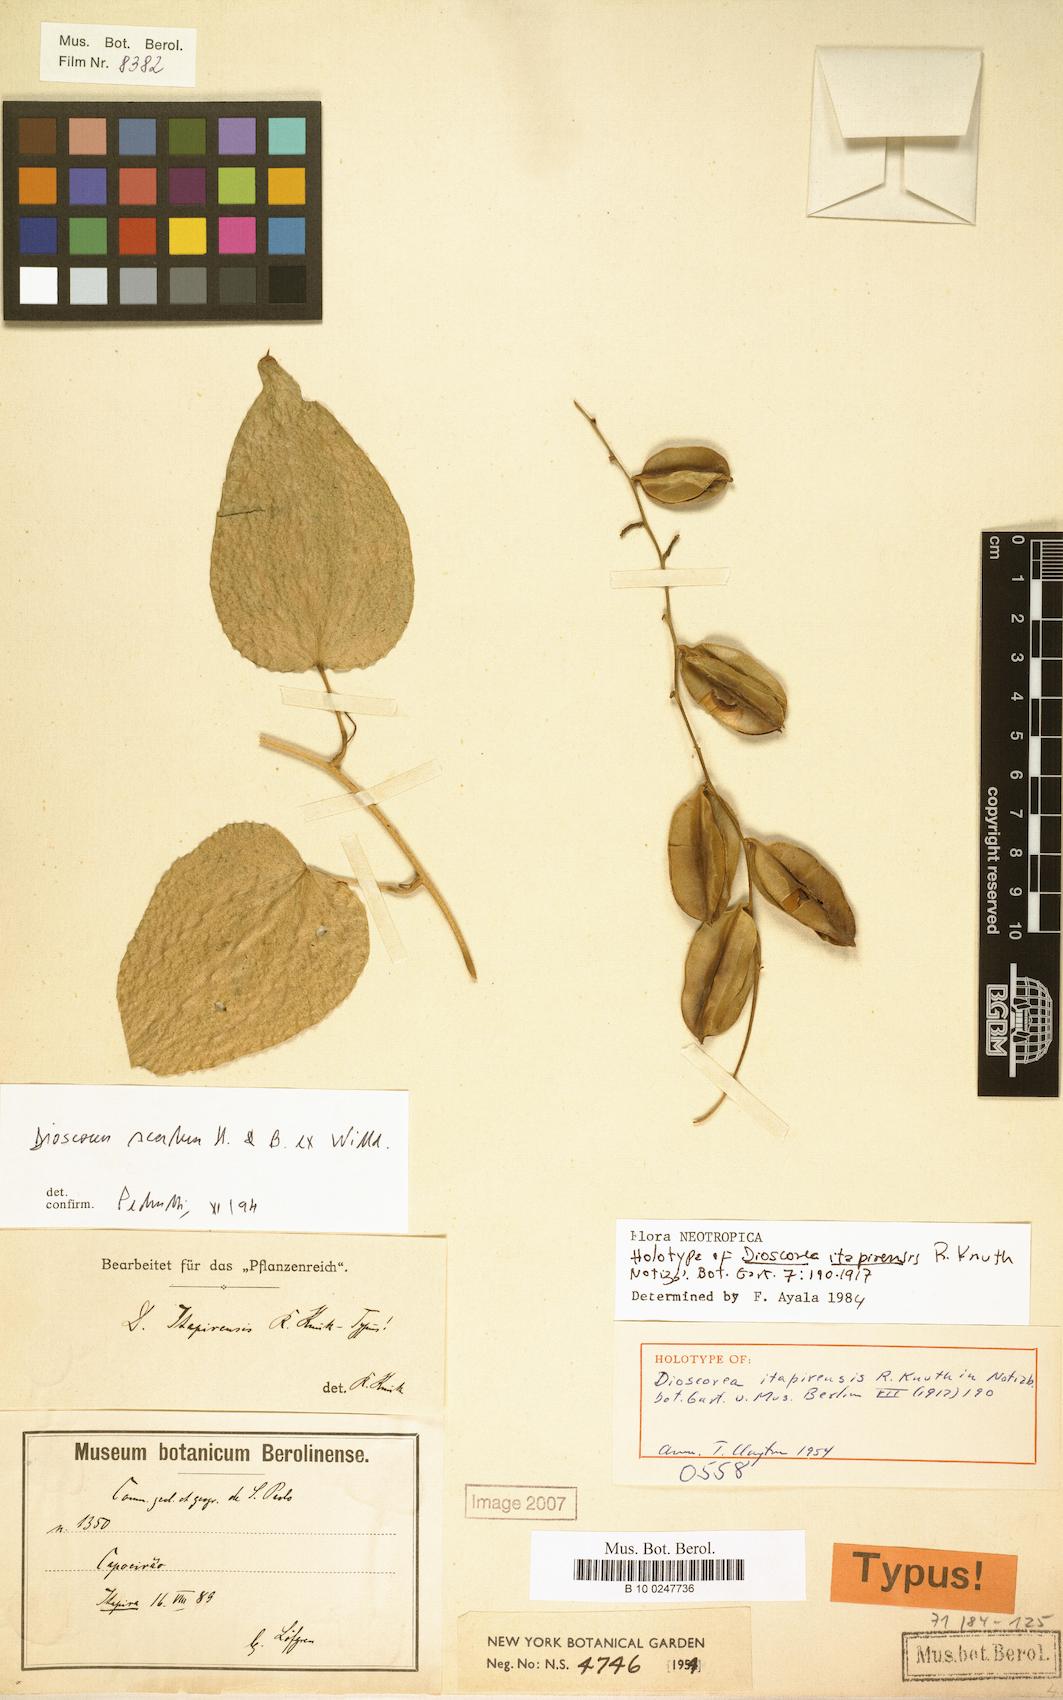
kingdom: Plantae
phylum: Tracheophyta
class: Liliopsida
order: Dioscoreales
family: Dioscoreaceae
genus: Dioscorea
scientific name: Dioscorea scabra
